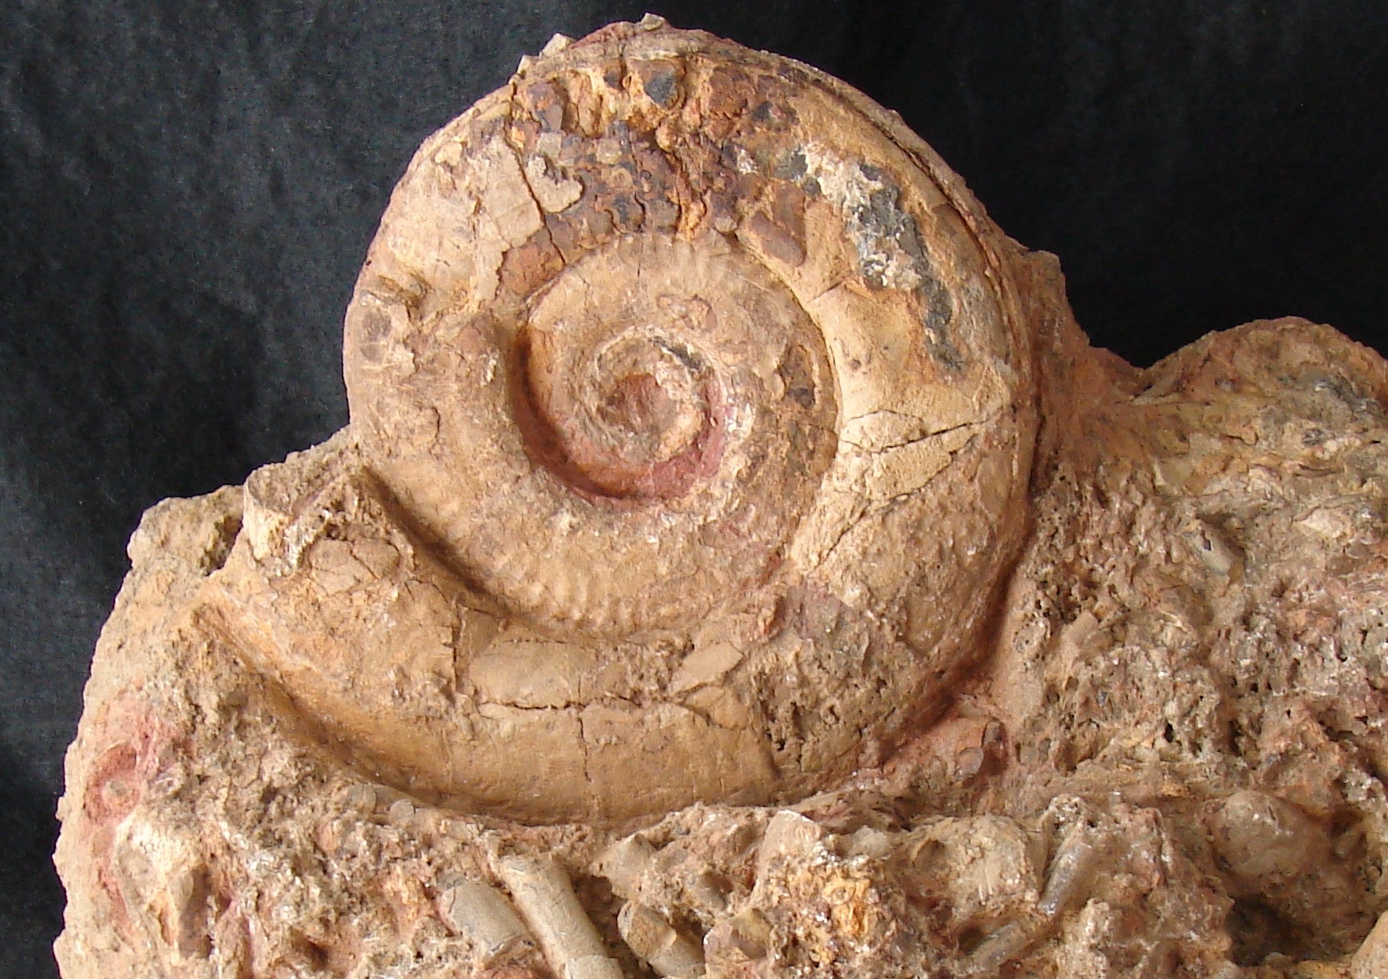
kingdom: Animalia
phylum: Mollusca
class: Cephalopoda
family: Hildoceratidae
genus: Hildoceras
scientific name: Hildoceras semipolitum
